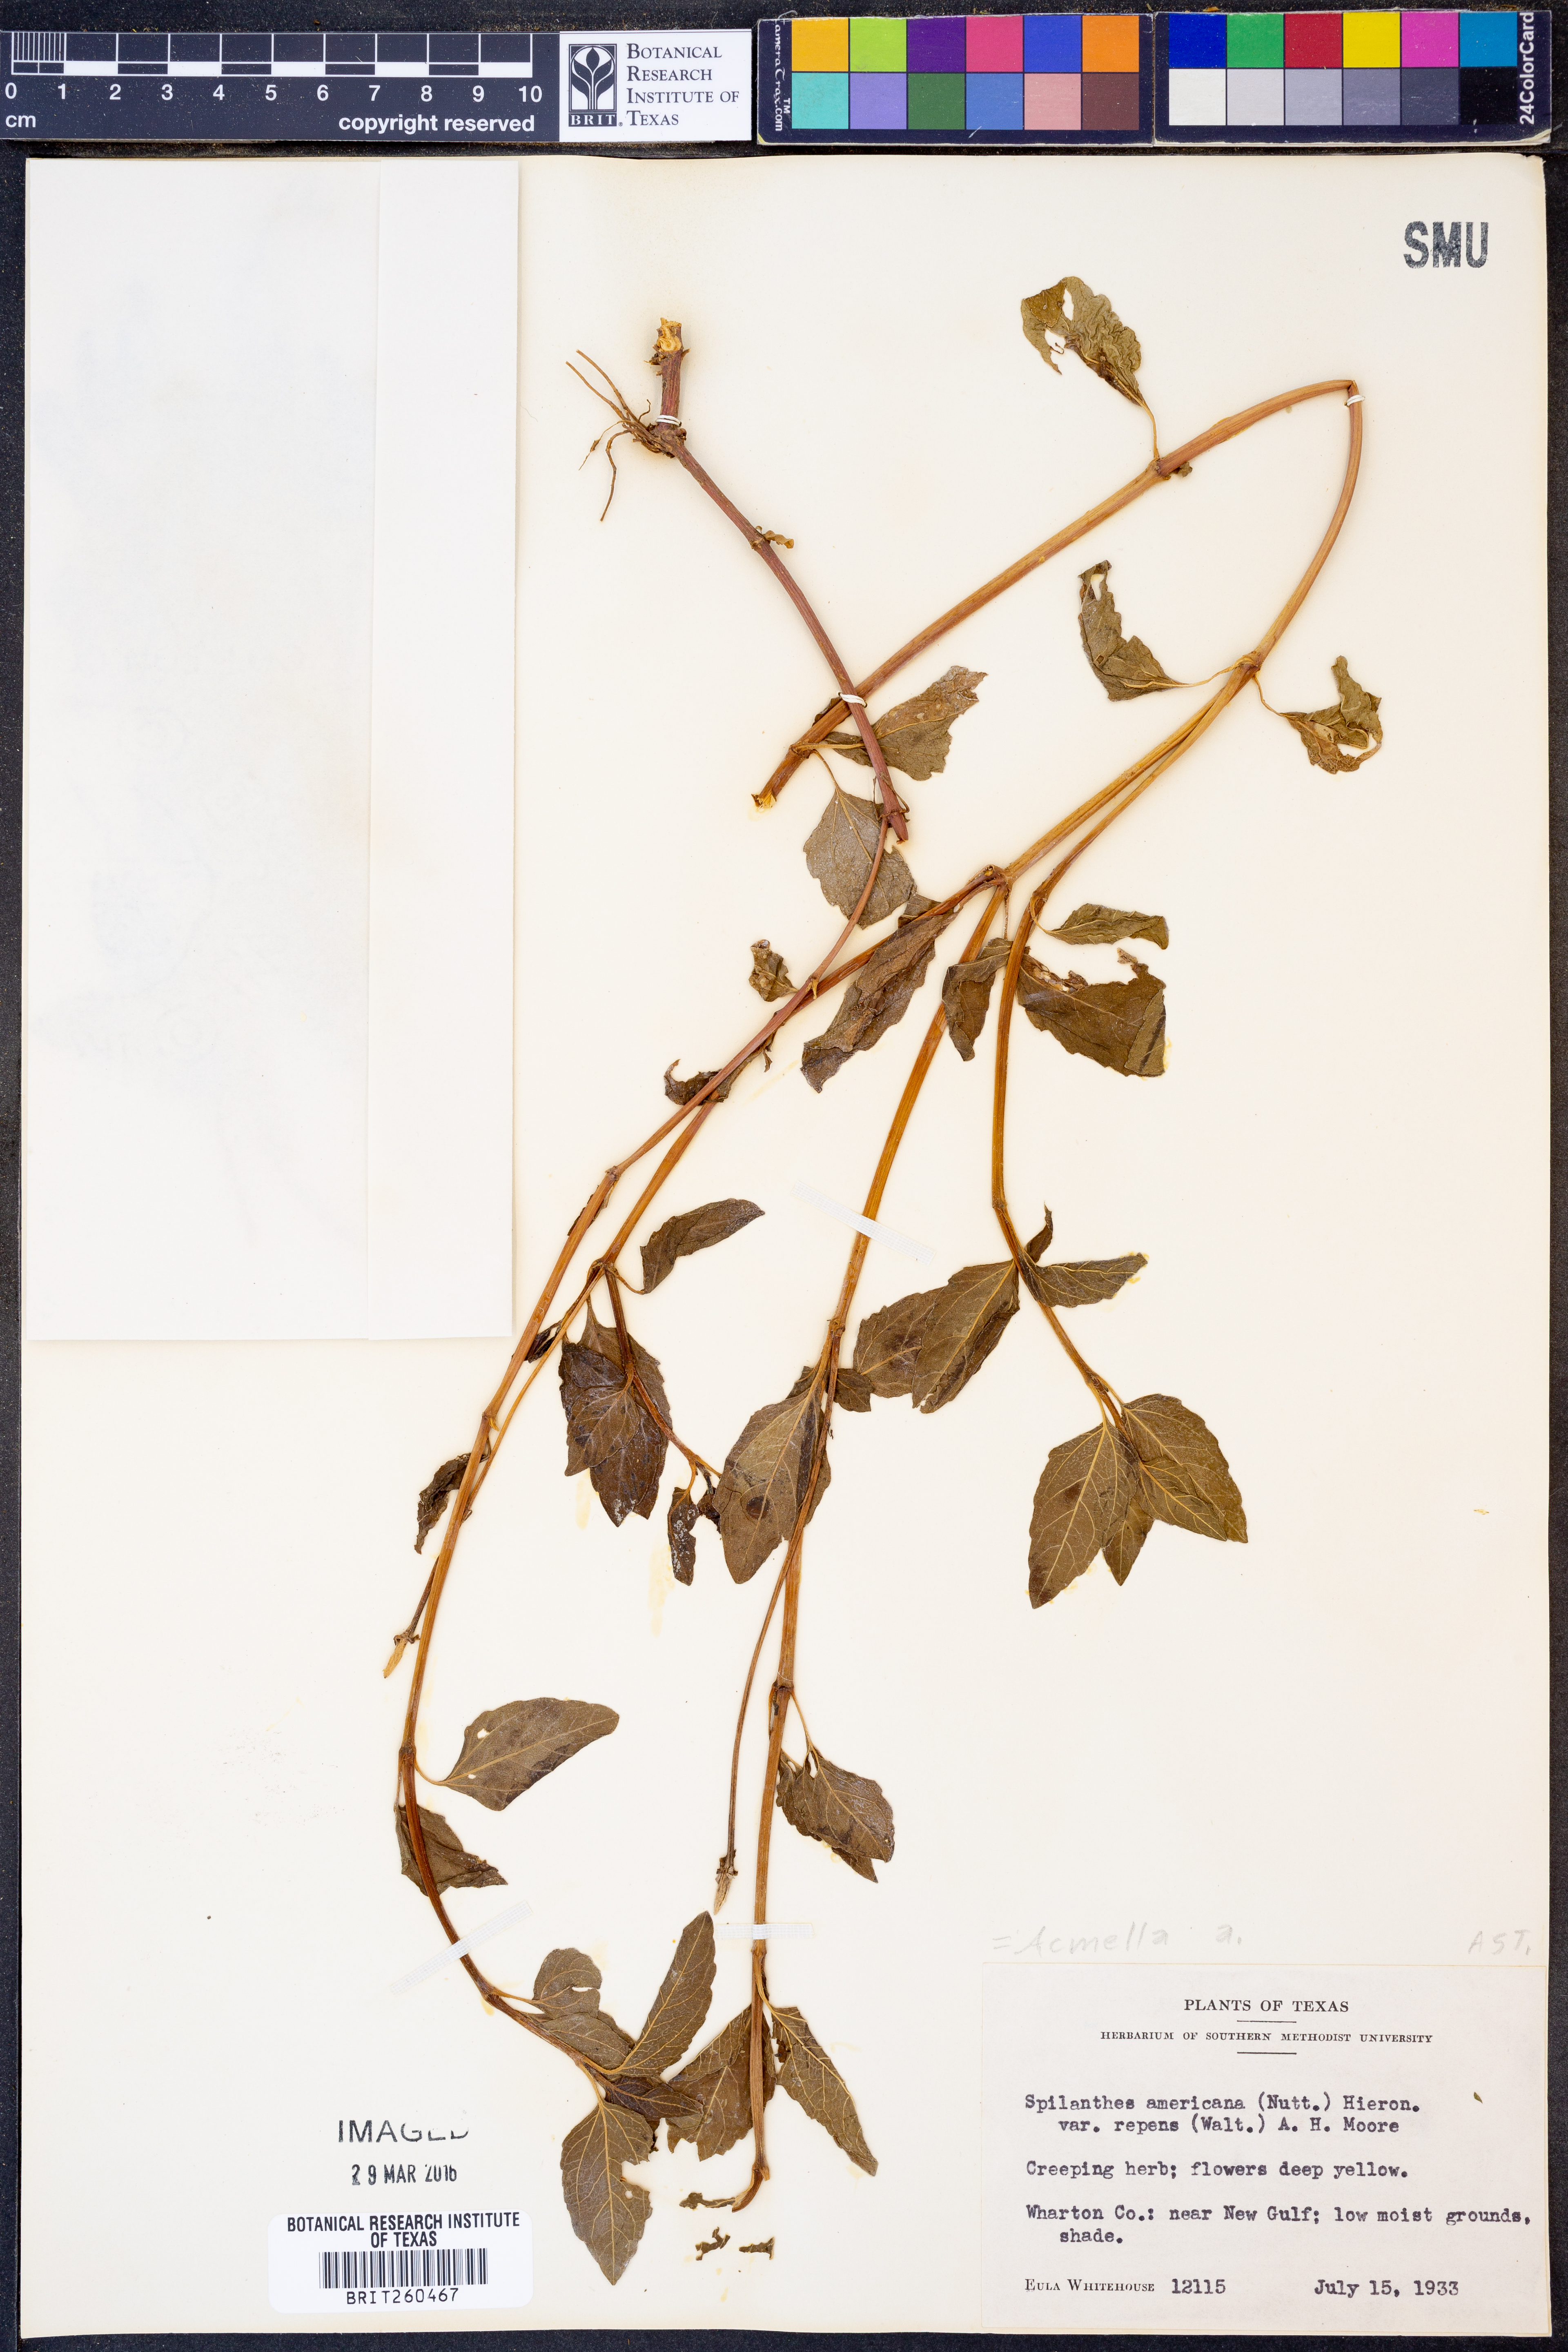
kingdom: Plantae
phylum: Tracheophyta
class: Magnoliopsida
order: Asterales
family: Asteraceae
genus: Acmella
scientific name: Acmella
